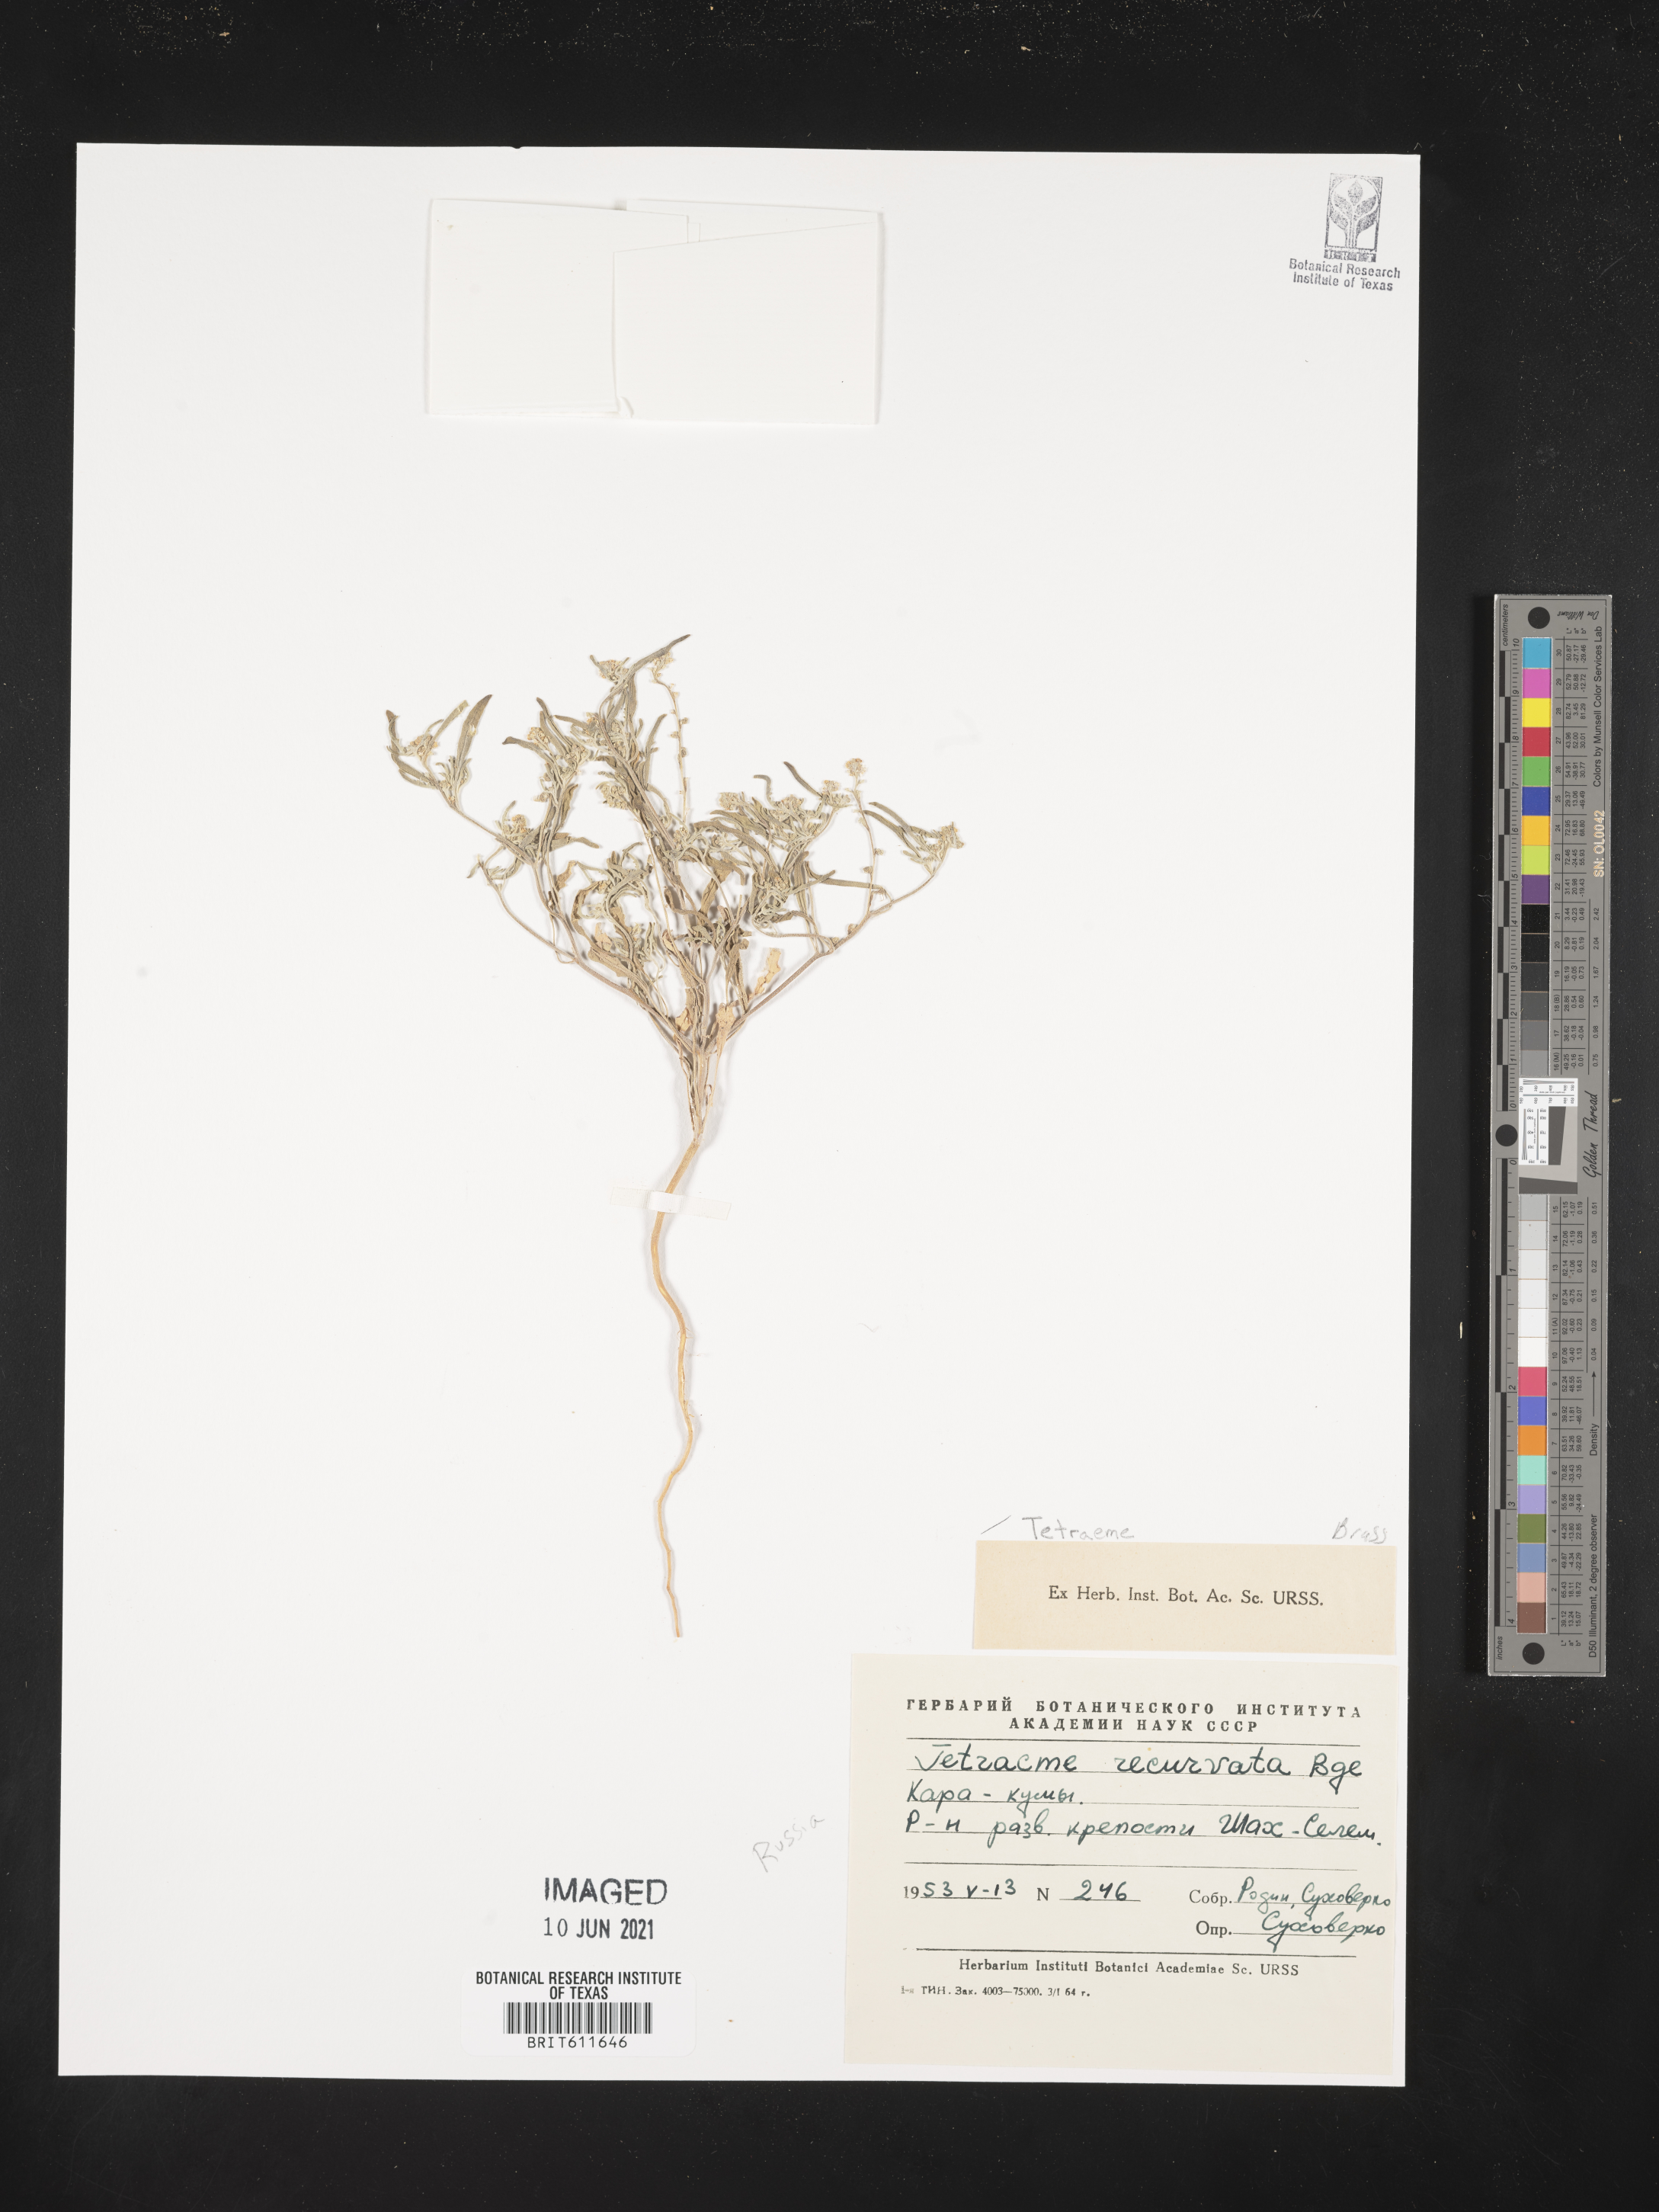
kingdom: Plantae
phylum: Tracheophyta
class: Magnoliopsida
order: Brassicales
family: Brassicaceae
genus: Tetracme
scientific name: Tetracme recurvata
